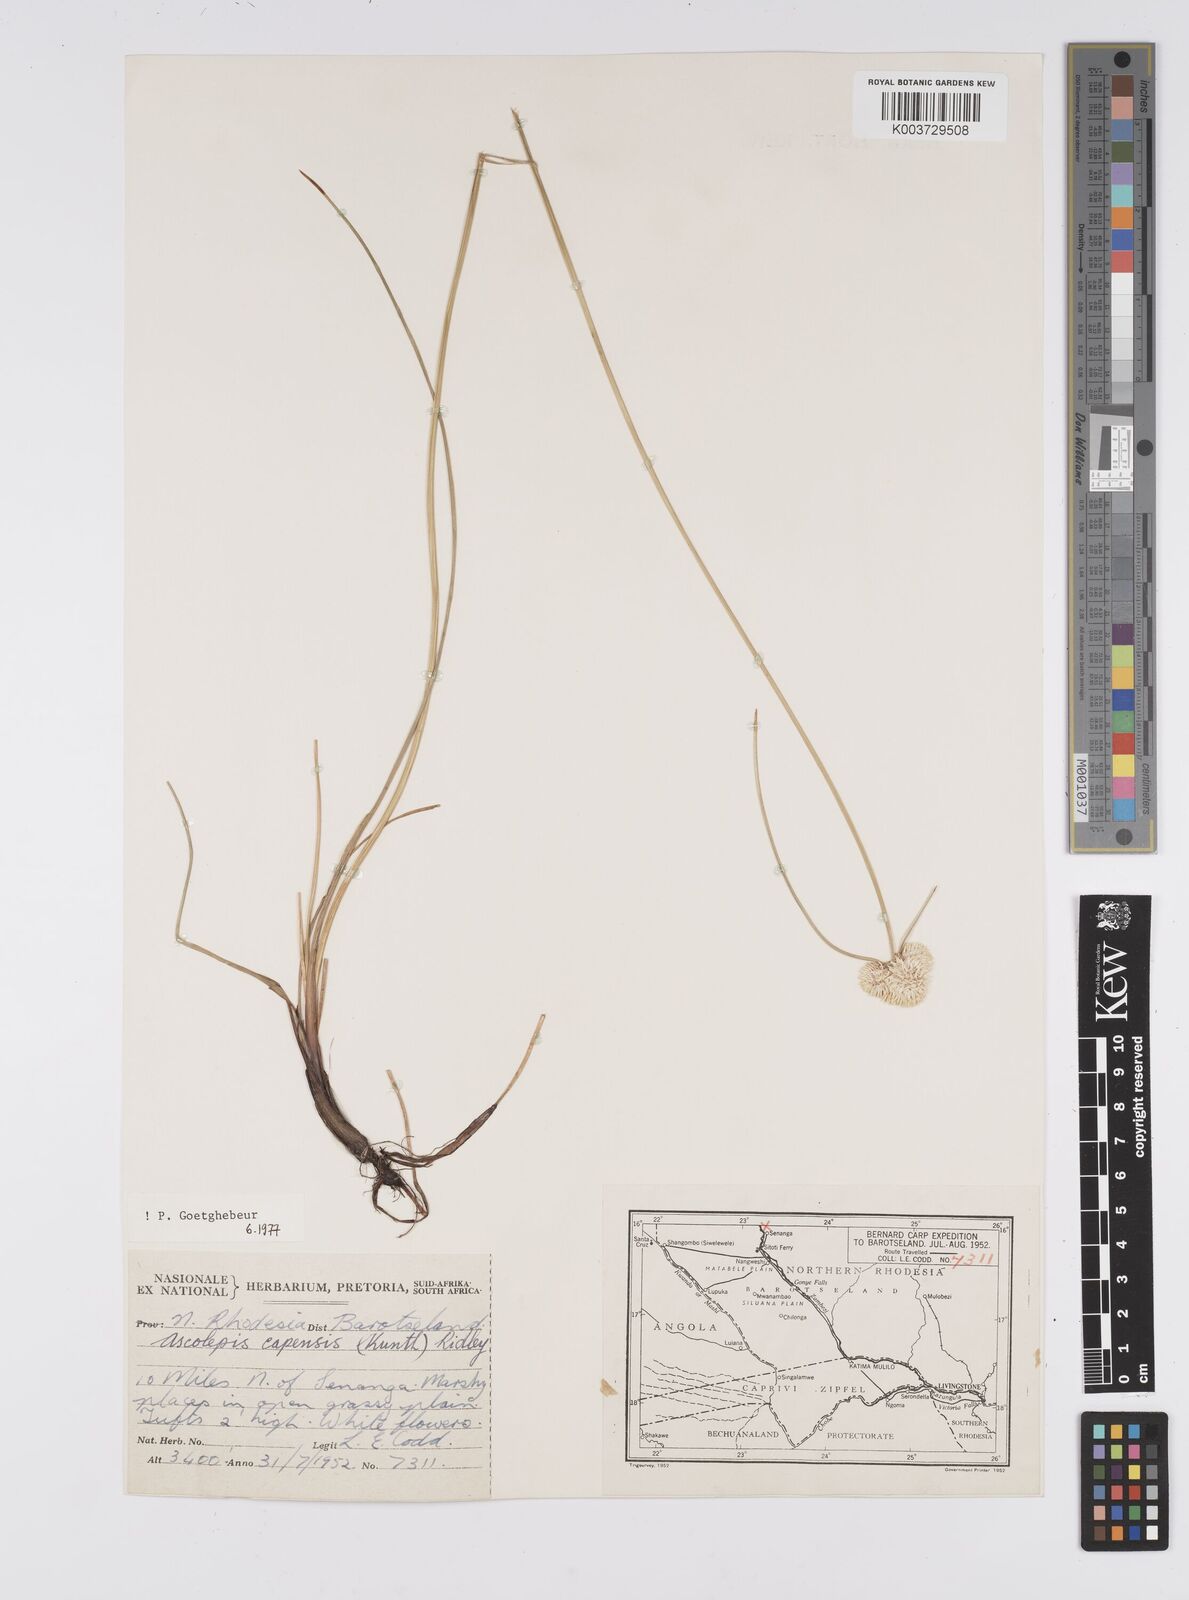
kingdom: Plantae
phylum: Tracheophyta
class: Liliopsida
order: Poales
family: Cyperaceae
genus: Cyperus
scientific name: Cyperus
